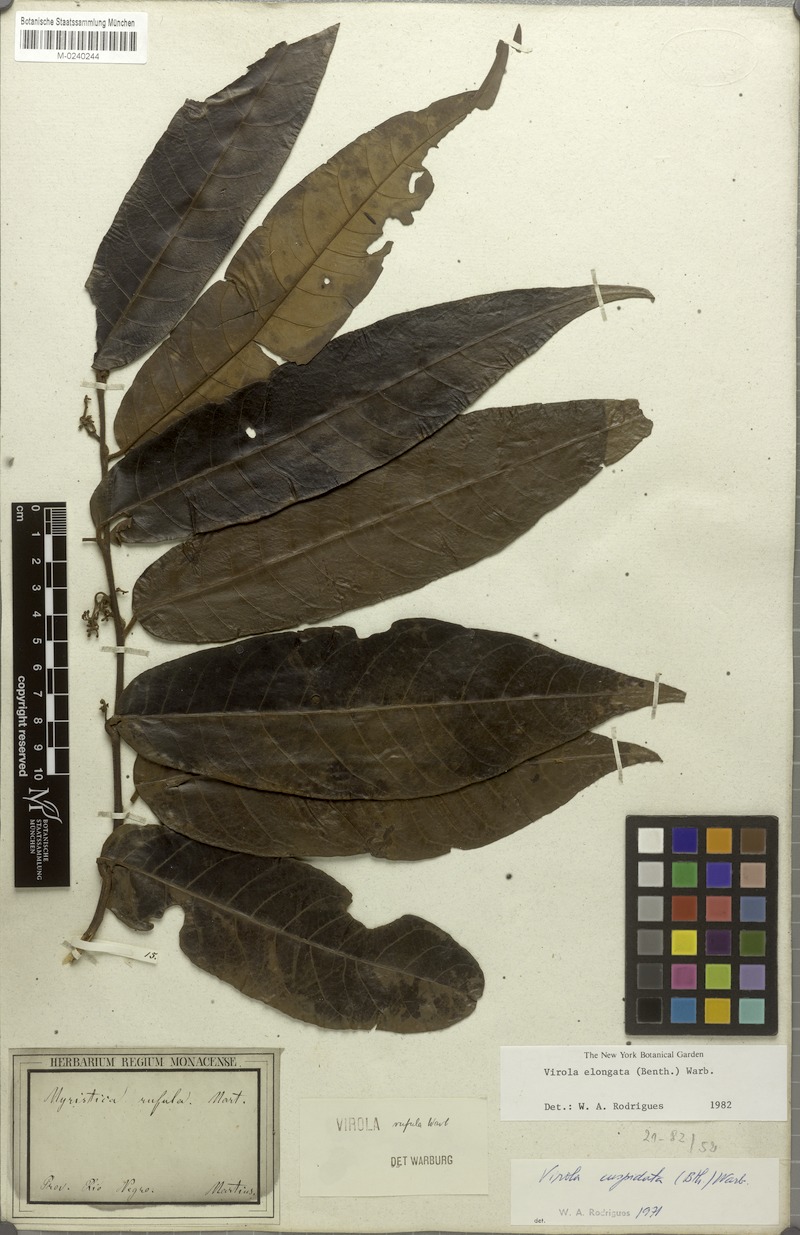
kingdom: Plantae
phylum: Tracheophyta
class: Magnoliopsida
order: Magnoliales
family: Myristicaceae
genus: Virola
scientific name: Virola elongata
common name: Sacred virola
